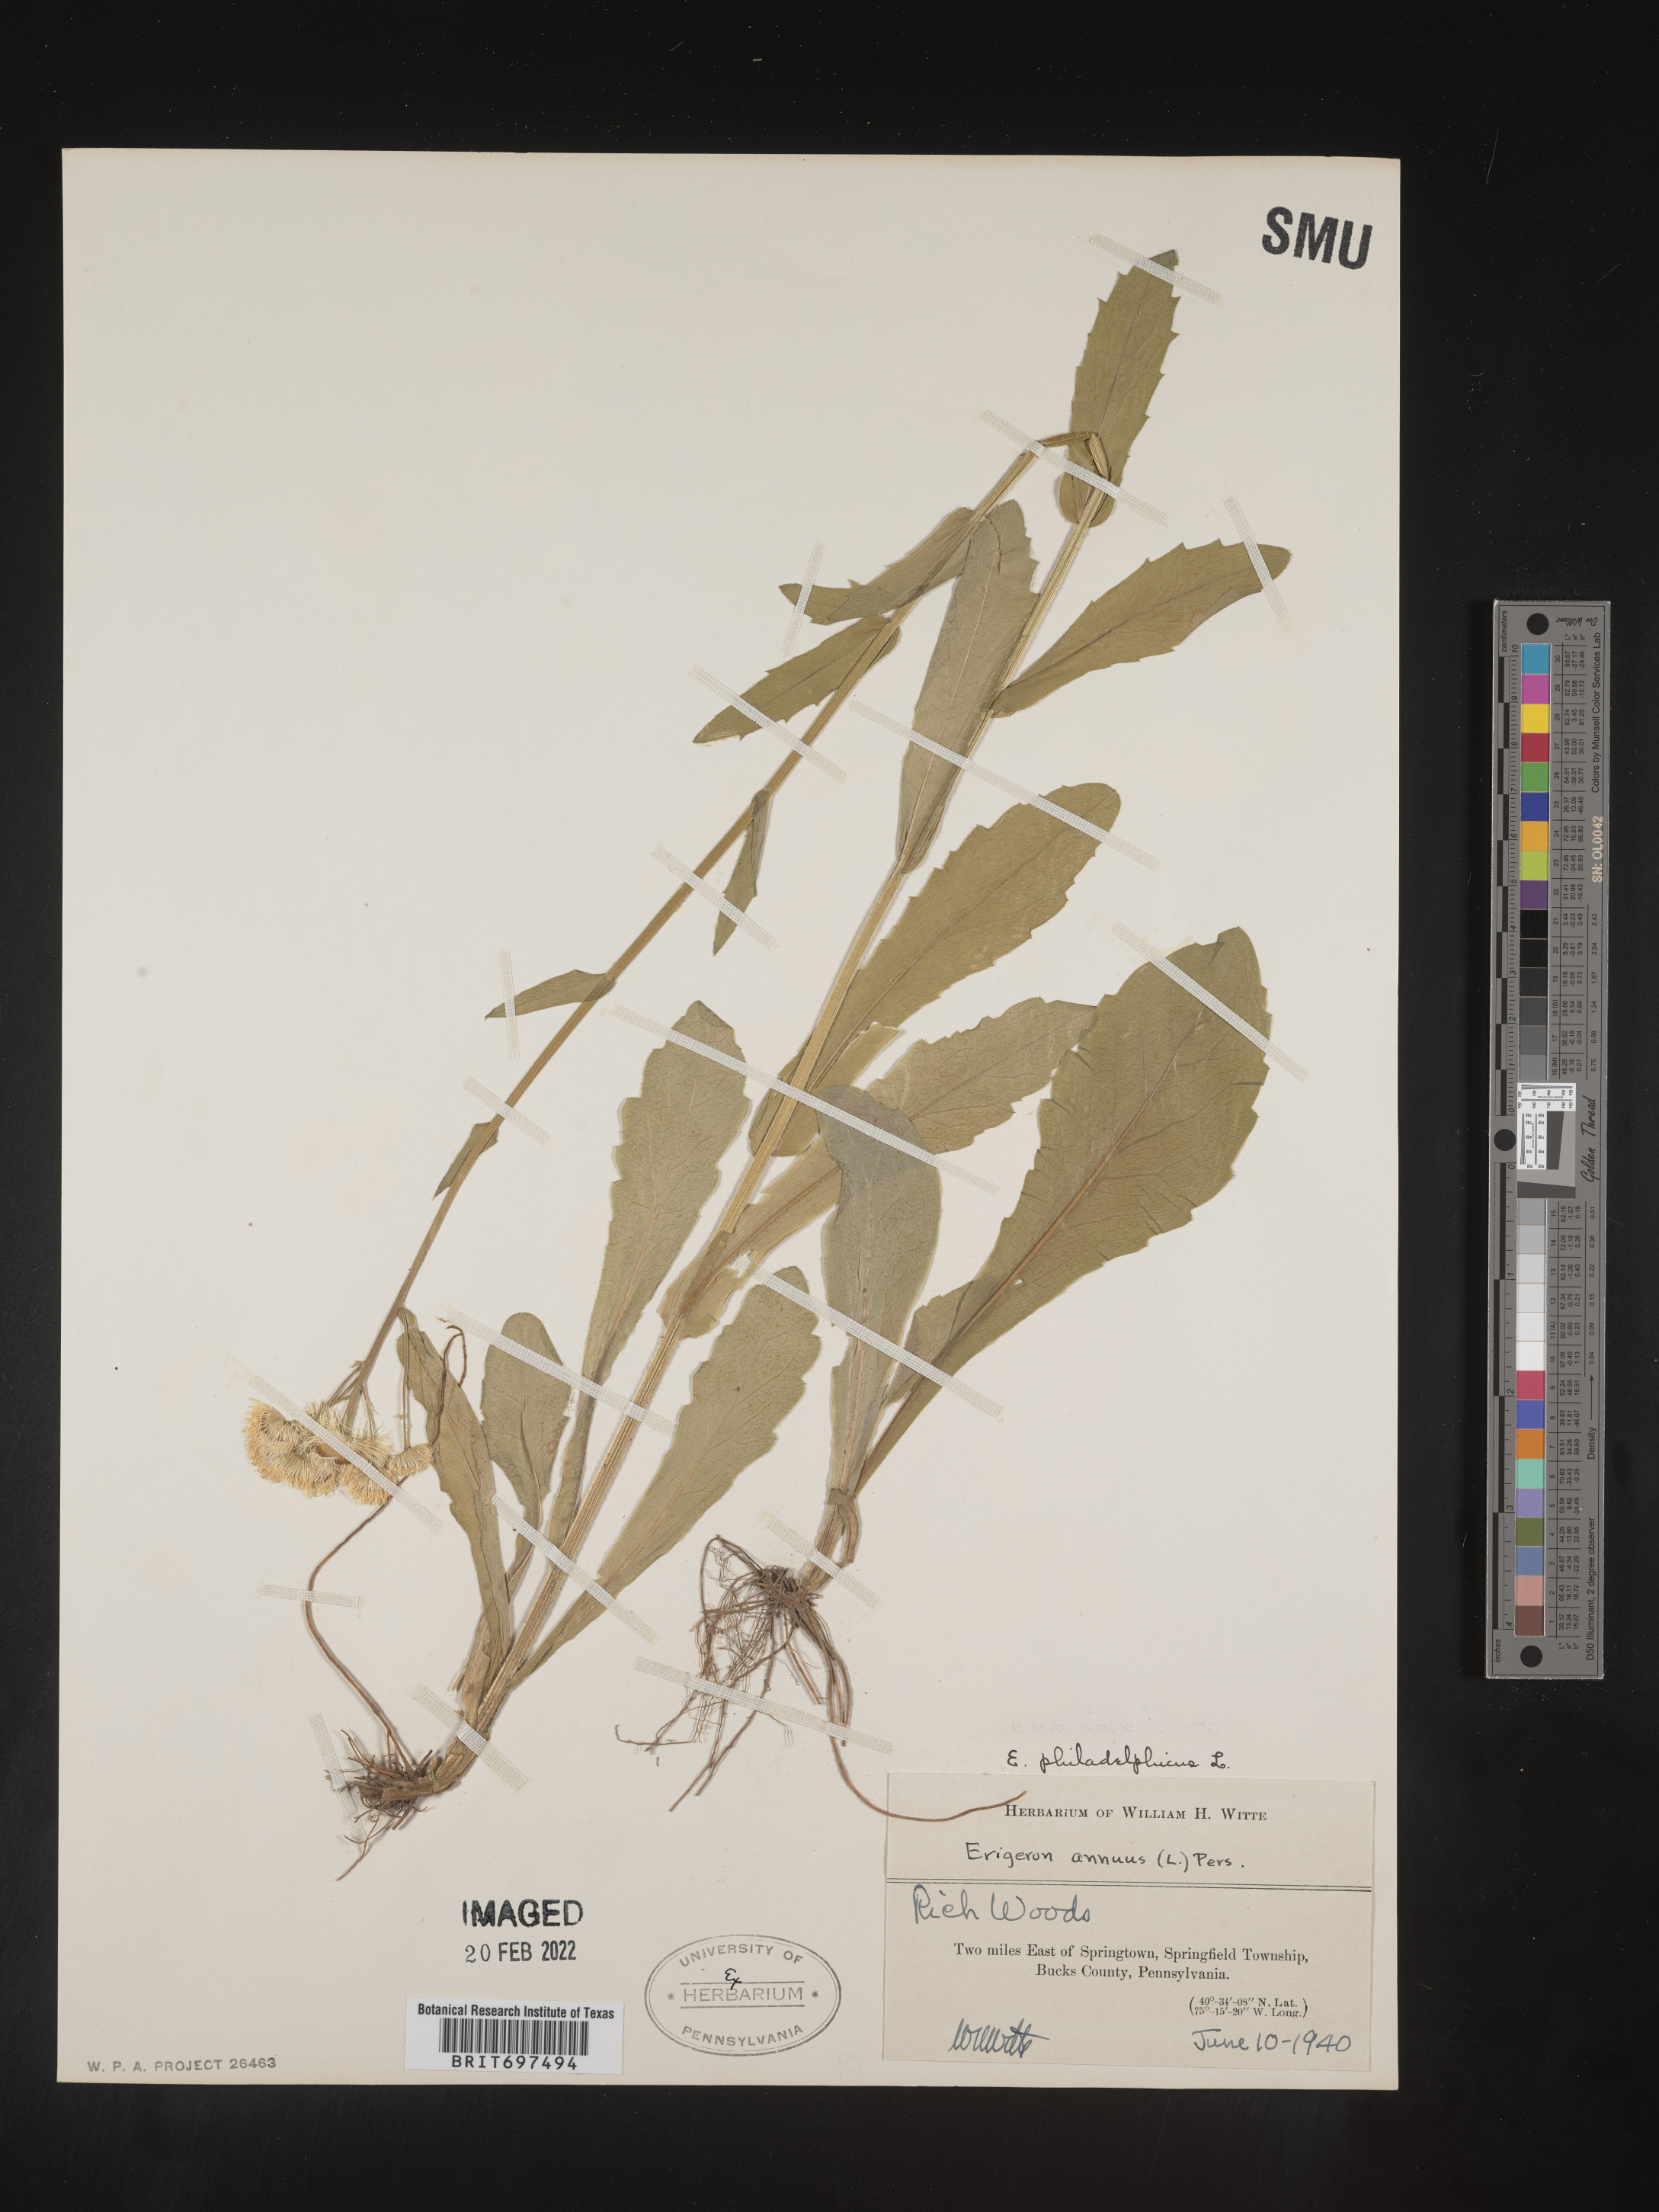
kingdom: Plantae
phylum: Tracheophyta
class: Magnoliopsida
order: Asterales
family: Asteraceae
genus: Erigeron
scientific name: Erigeron philadelphicus
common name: Robin's-plantain
